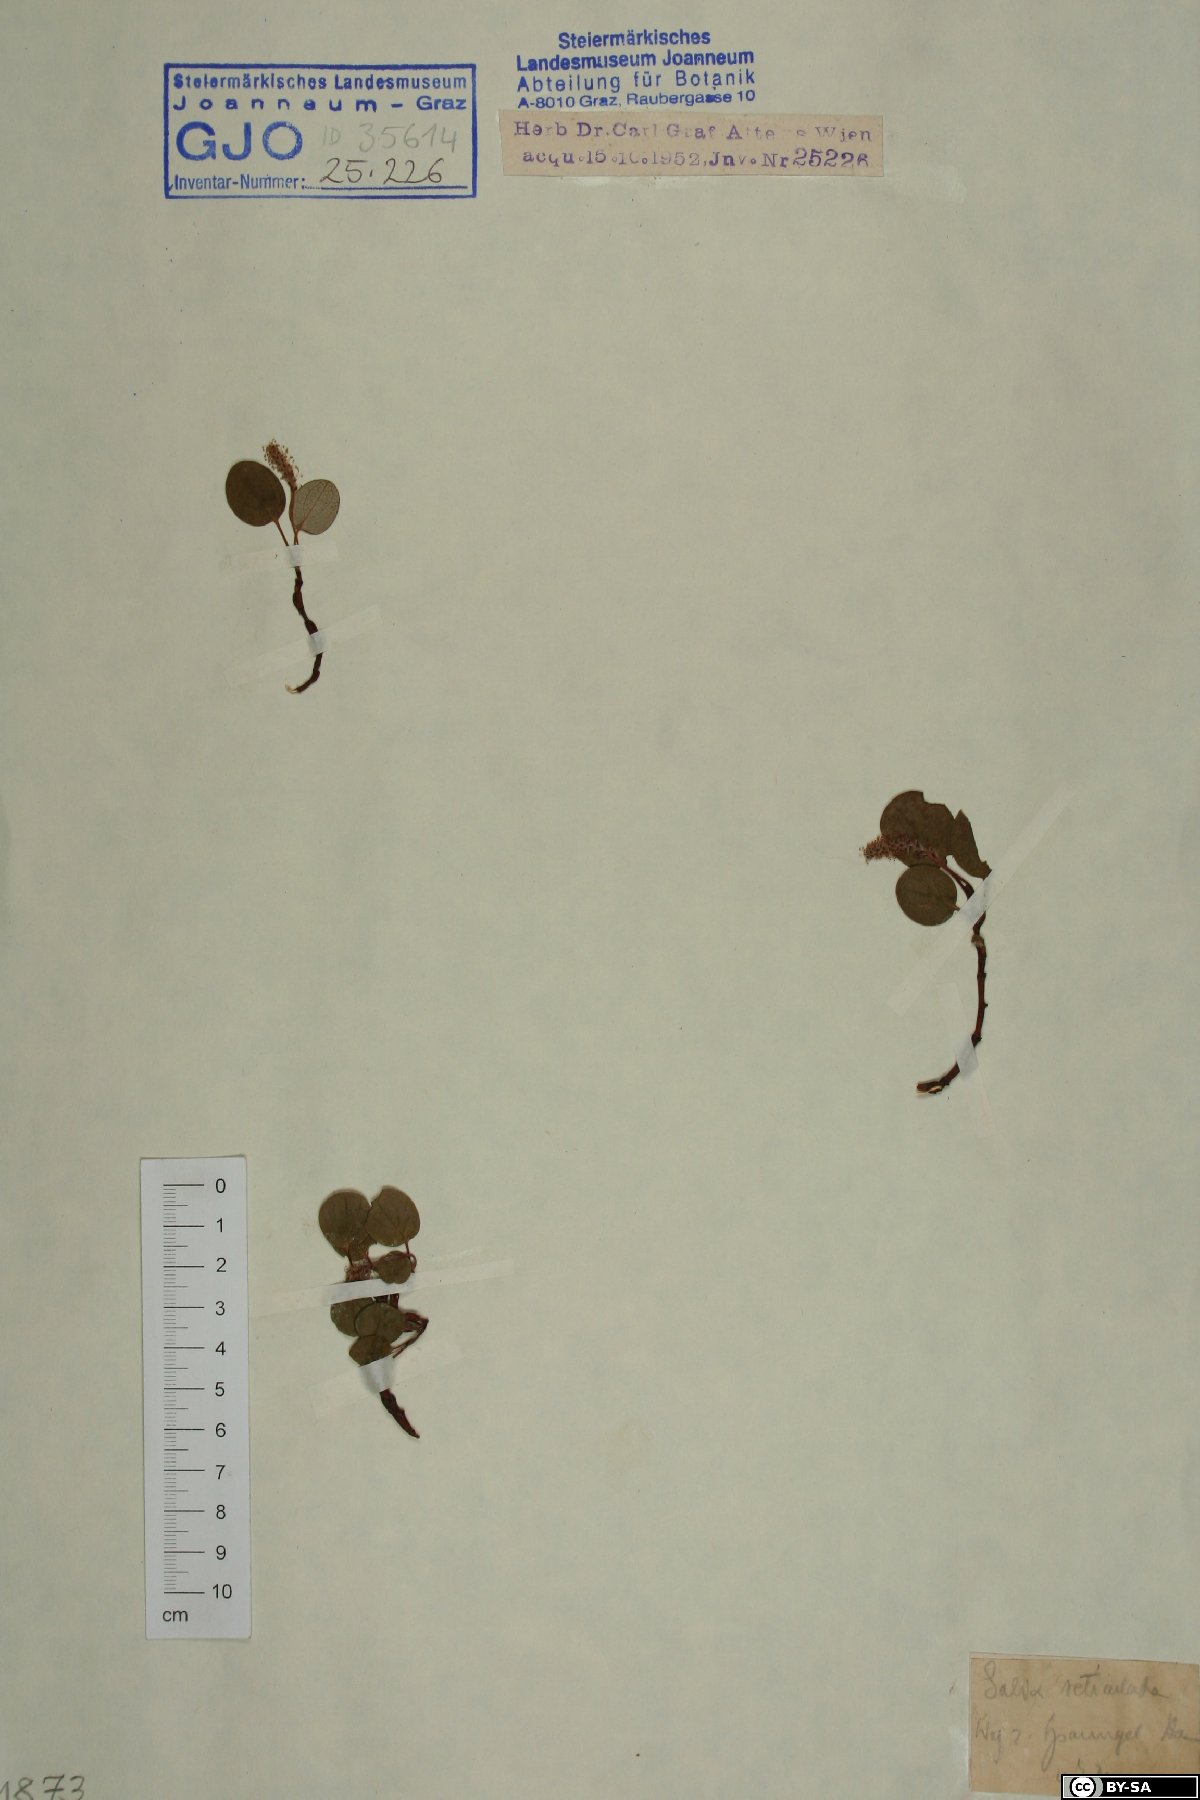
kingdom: Plantae
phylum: Tracheophyta
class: Magnoliopsida
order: Malpighiales
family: Salicaceae
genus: Salix
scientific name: Salix reticulata
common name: Net-leaved willow
